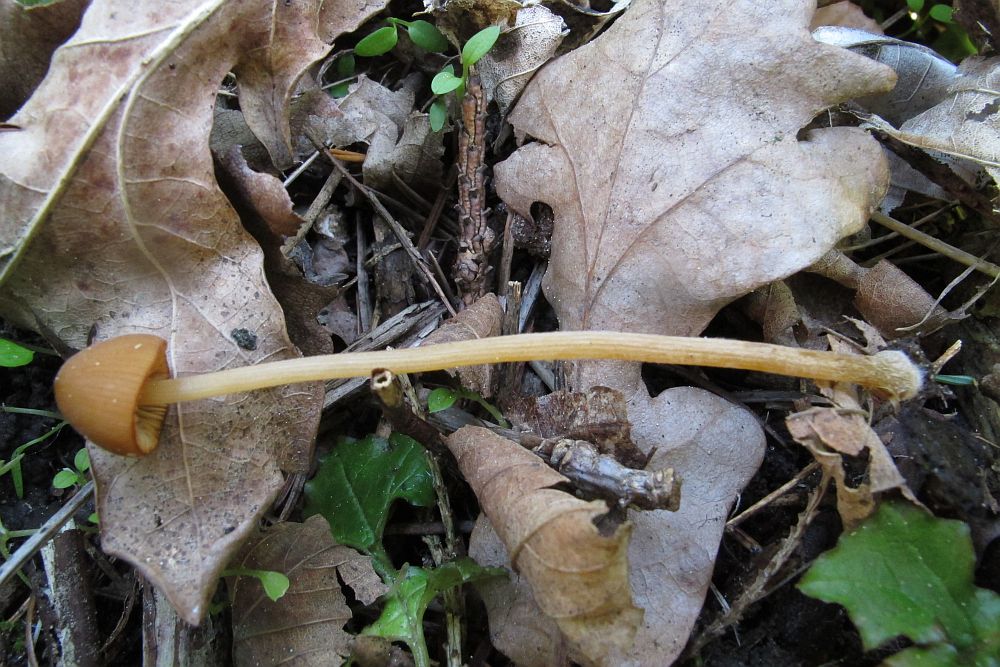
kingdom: Fungi
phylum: Basidiomycota
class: Agaricomycetes
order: Agaricales
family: Bolbitiaceae
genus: Conocybe
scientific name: Conocybe subpubescens
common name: krat-keglehat
